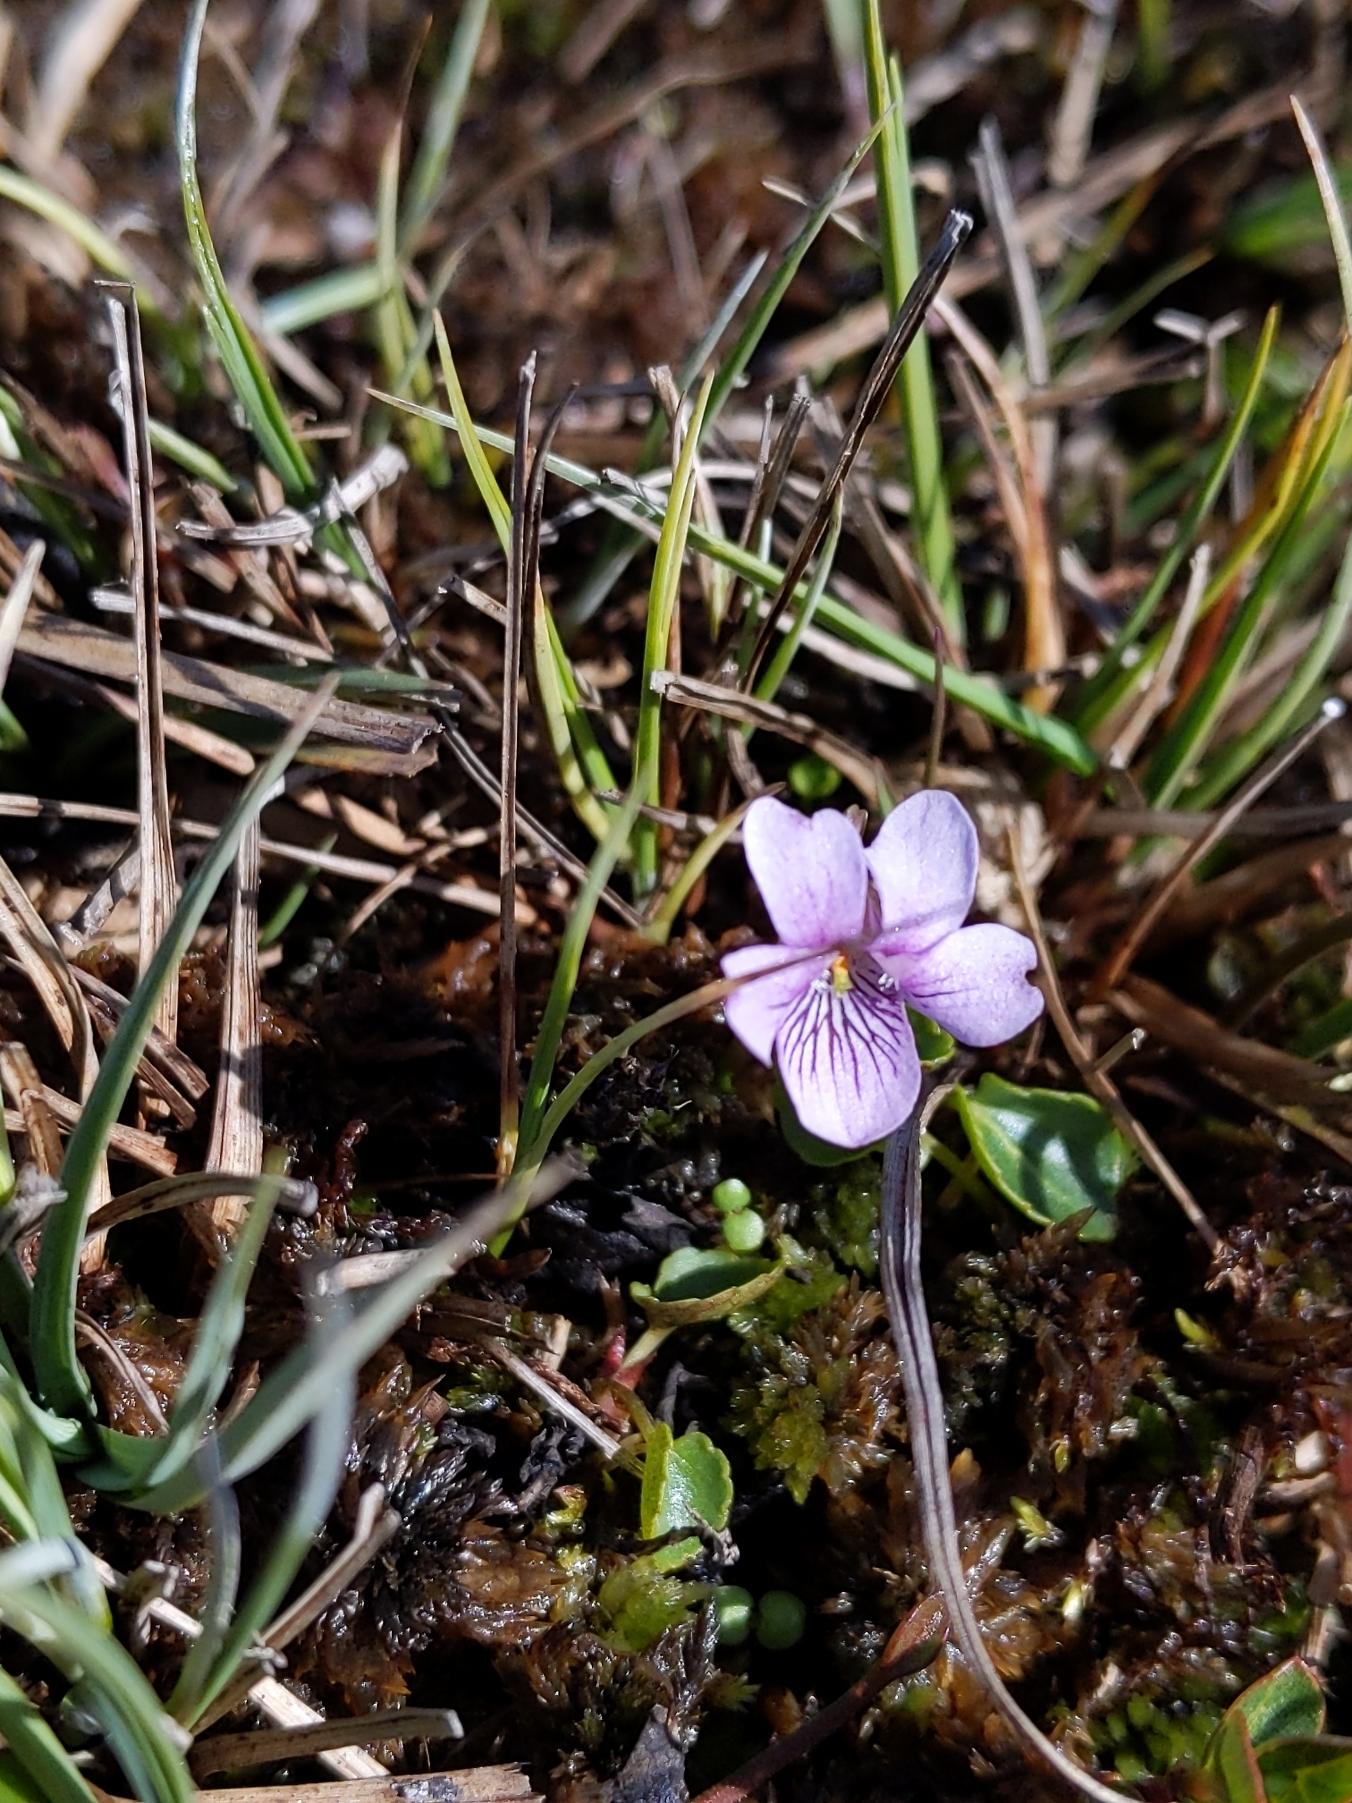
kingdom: Plantae
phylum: Tracheophyta
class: Magnoliopsida
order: Malpighiales
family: Violaceae
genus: Viola
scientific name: Viola palustris
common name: Eng-viol
